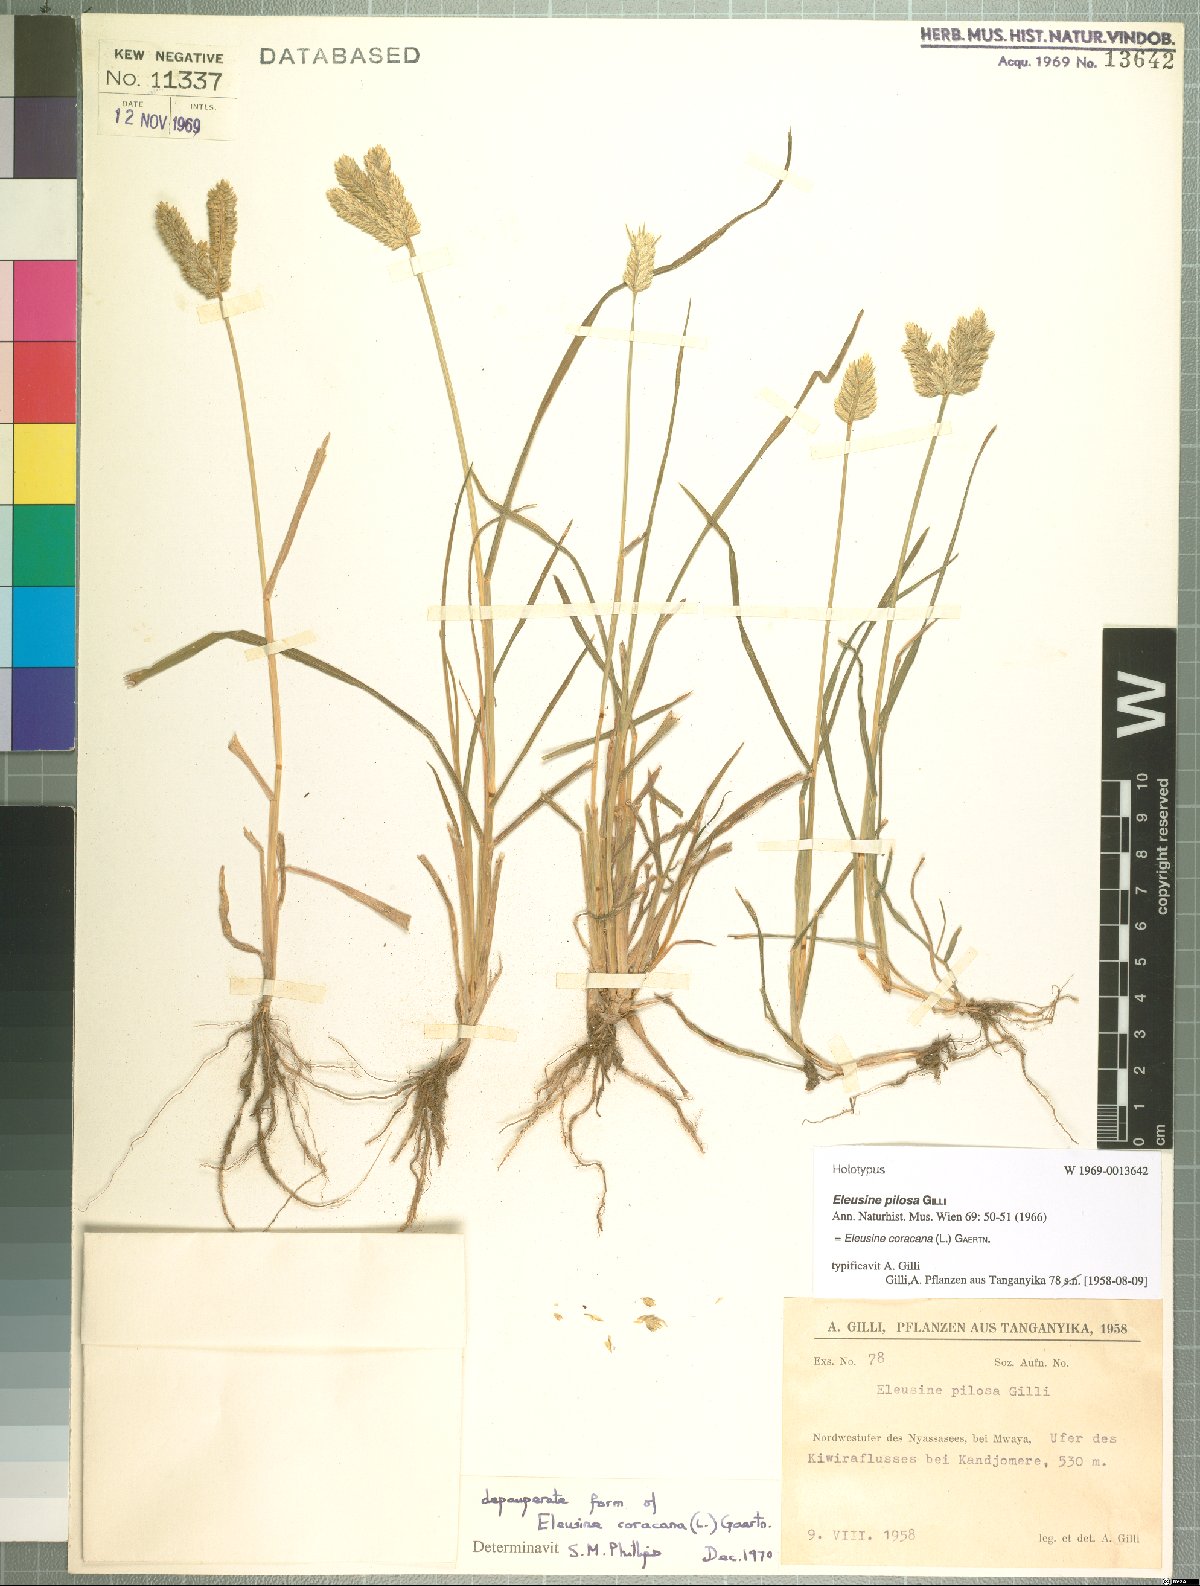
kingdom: Plantae
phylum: Tracheophyta
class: Liliopsida
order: Poales
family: Poaceae
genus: Eleusine
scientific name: Eleusine coracana
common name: Finger millet
